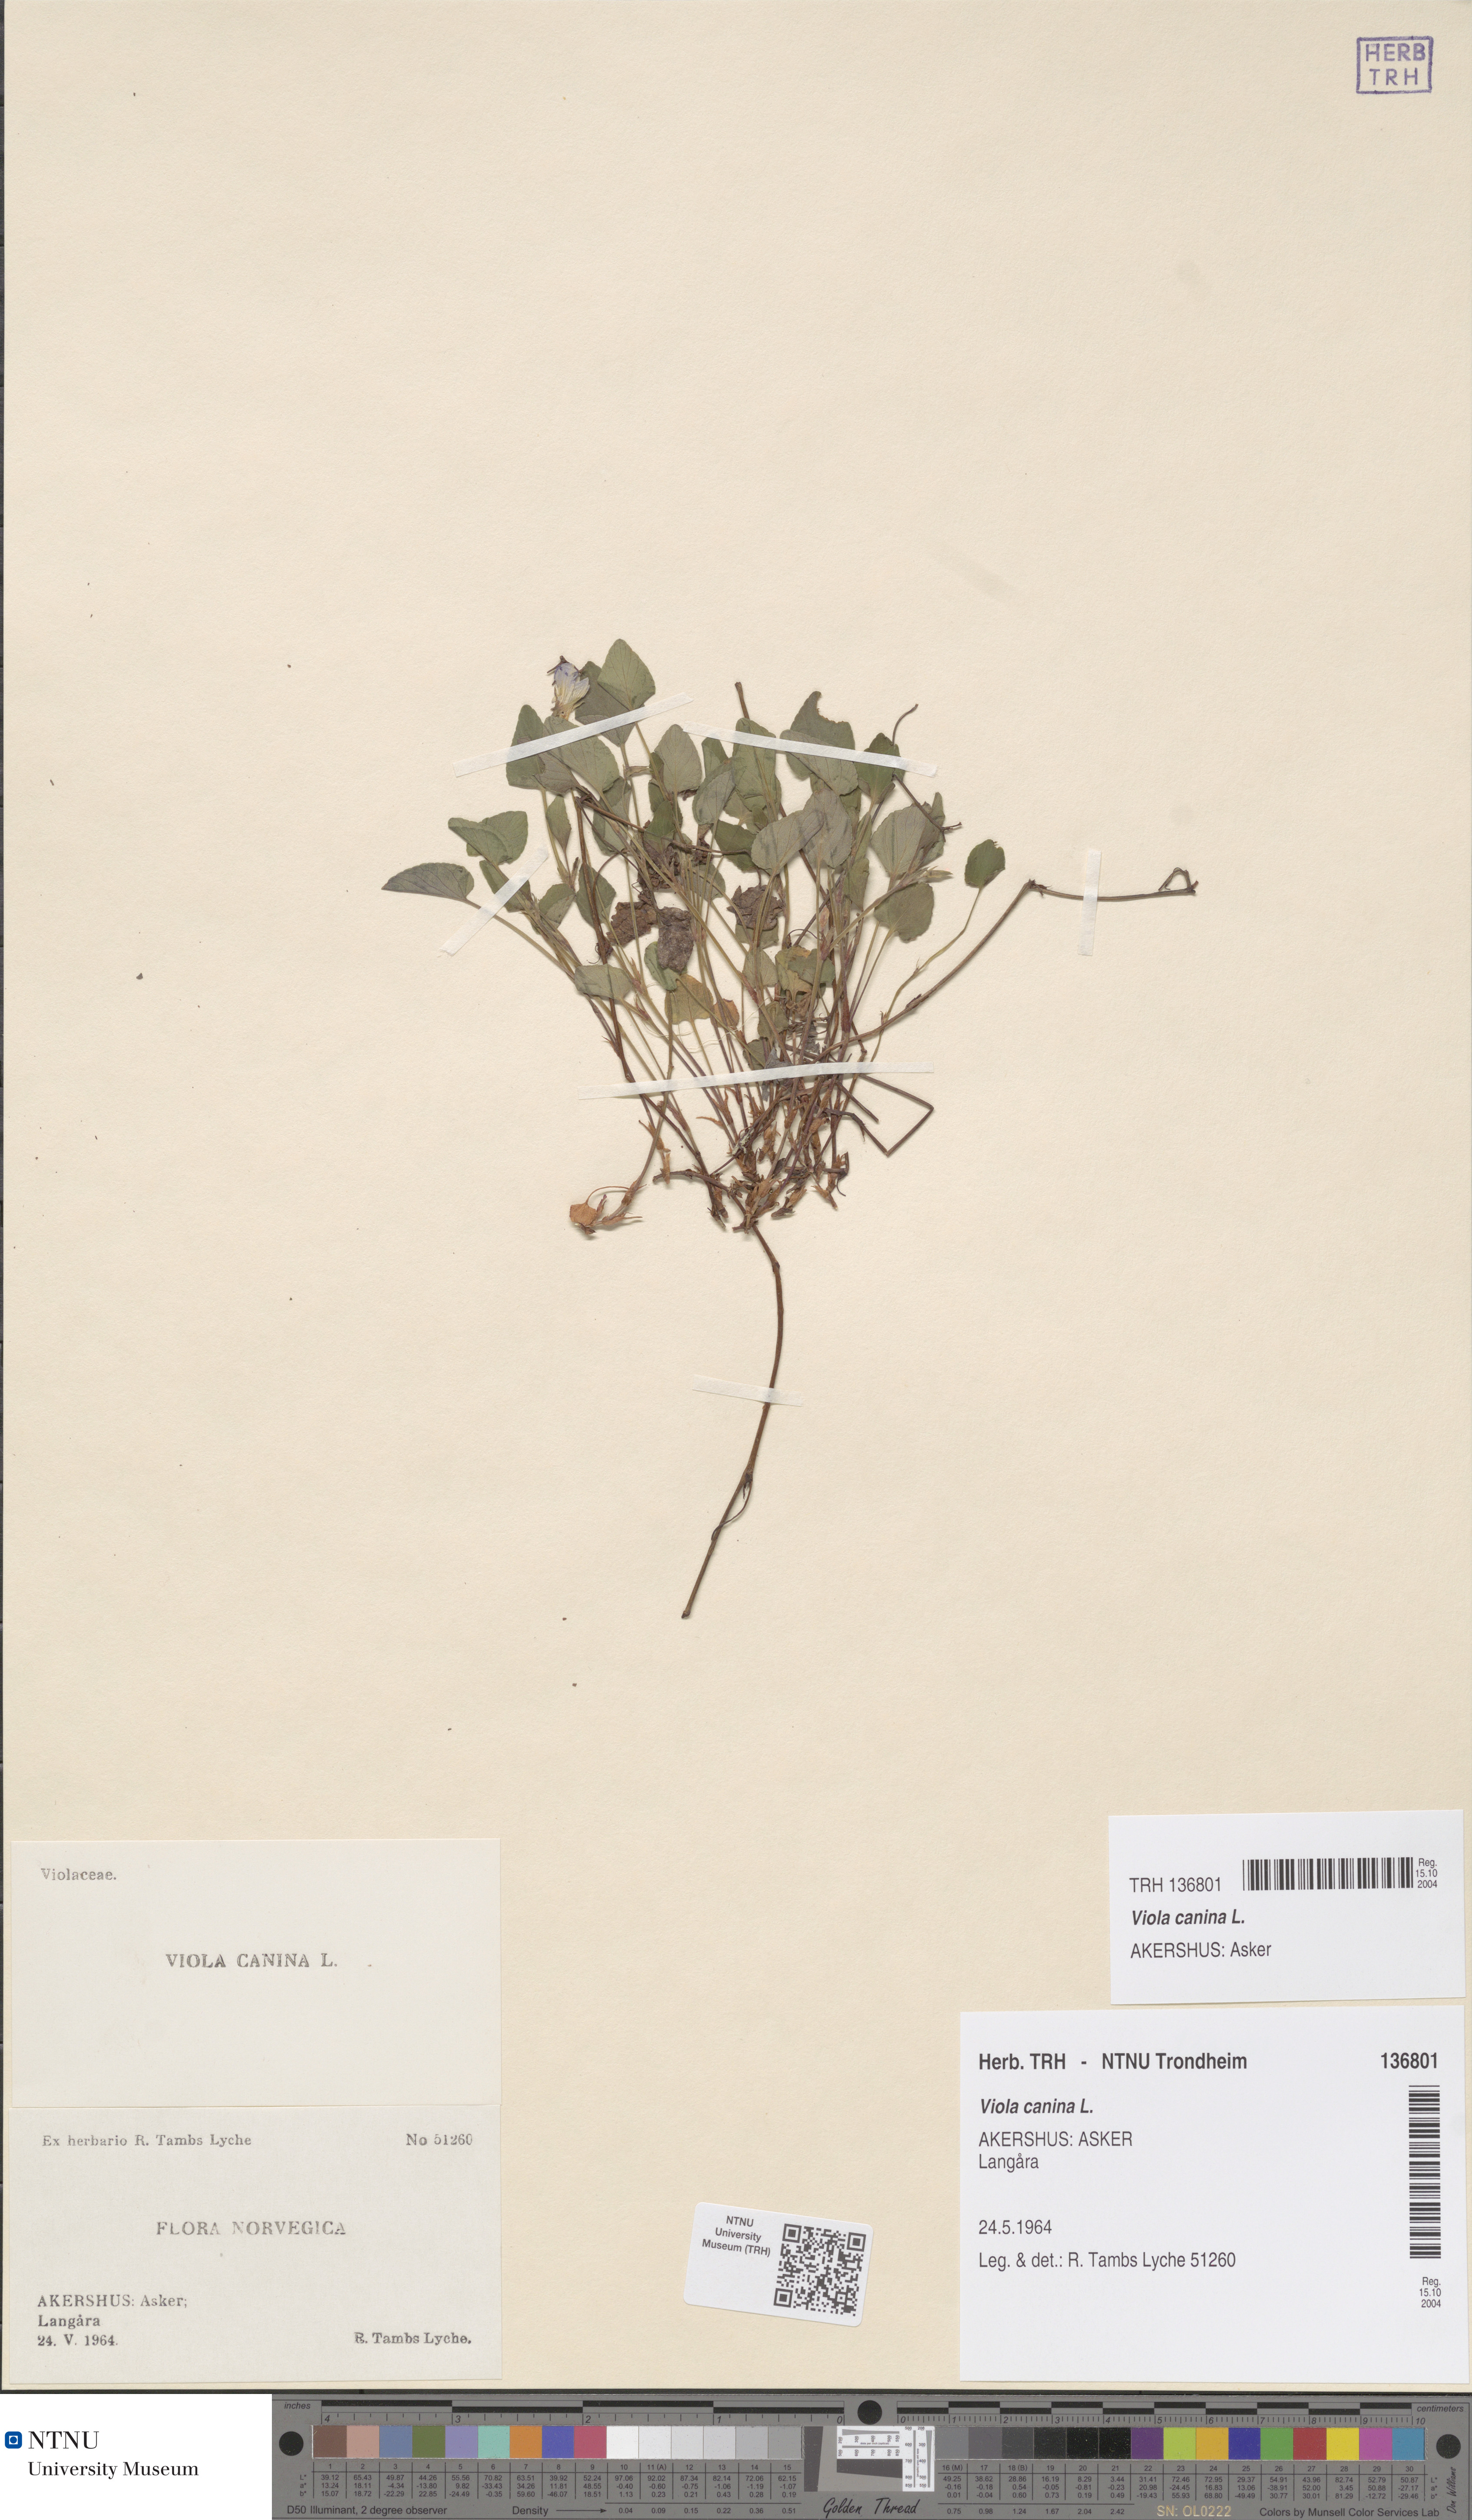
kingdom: Plantae
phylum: Tracheophyta
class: Magnoliopsida
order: Malpighiales
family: Violaceae
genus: Viola
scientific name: Viola canina
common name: Heath dog-violet
